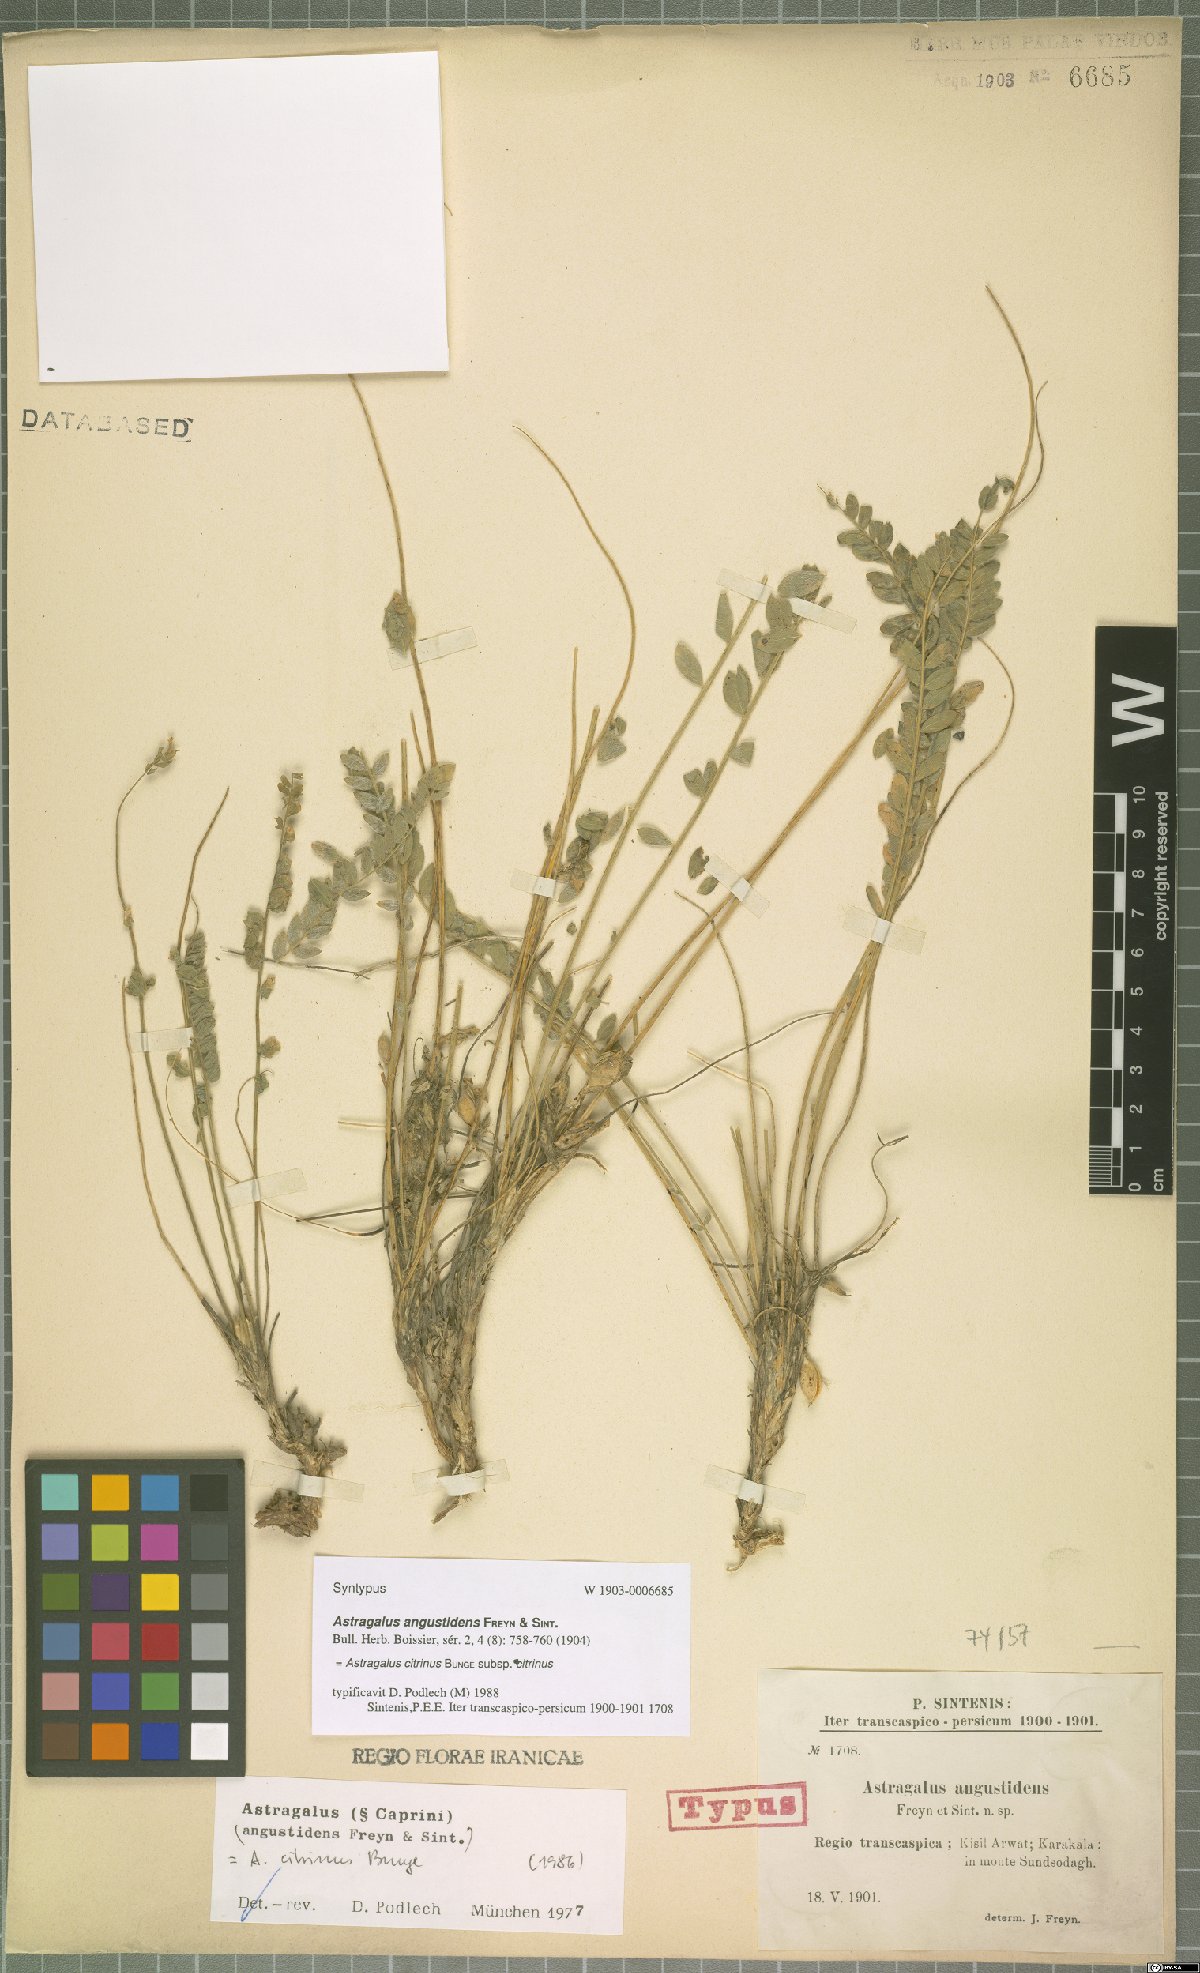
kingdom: Plantae
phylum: Tracheophyta
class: Magnoliopsida
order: Fabales
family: Fabaceae
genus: Astragalus
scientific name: Astragalus citrinus
